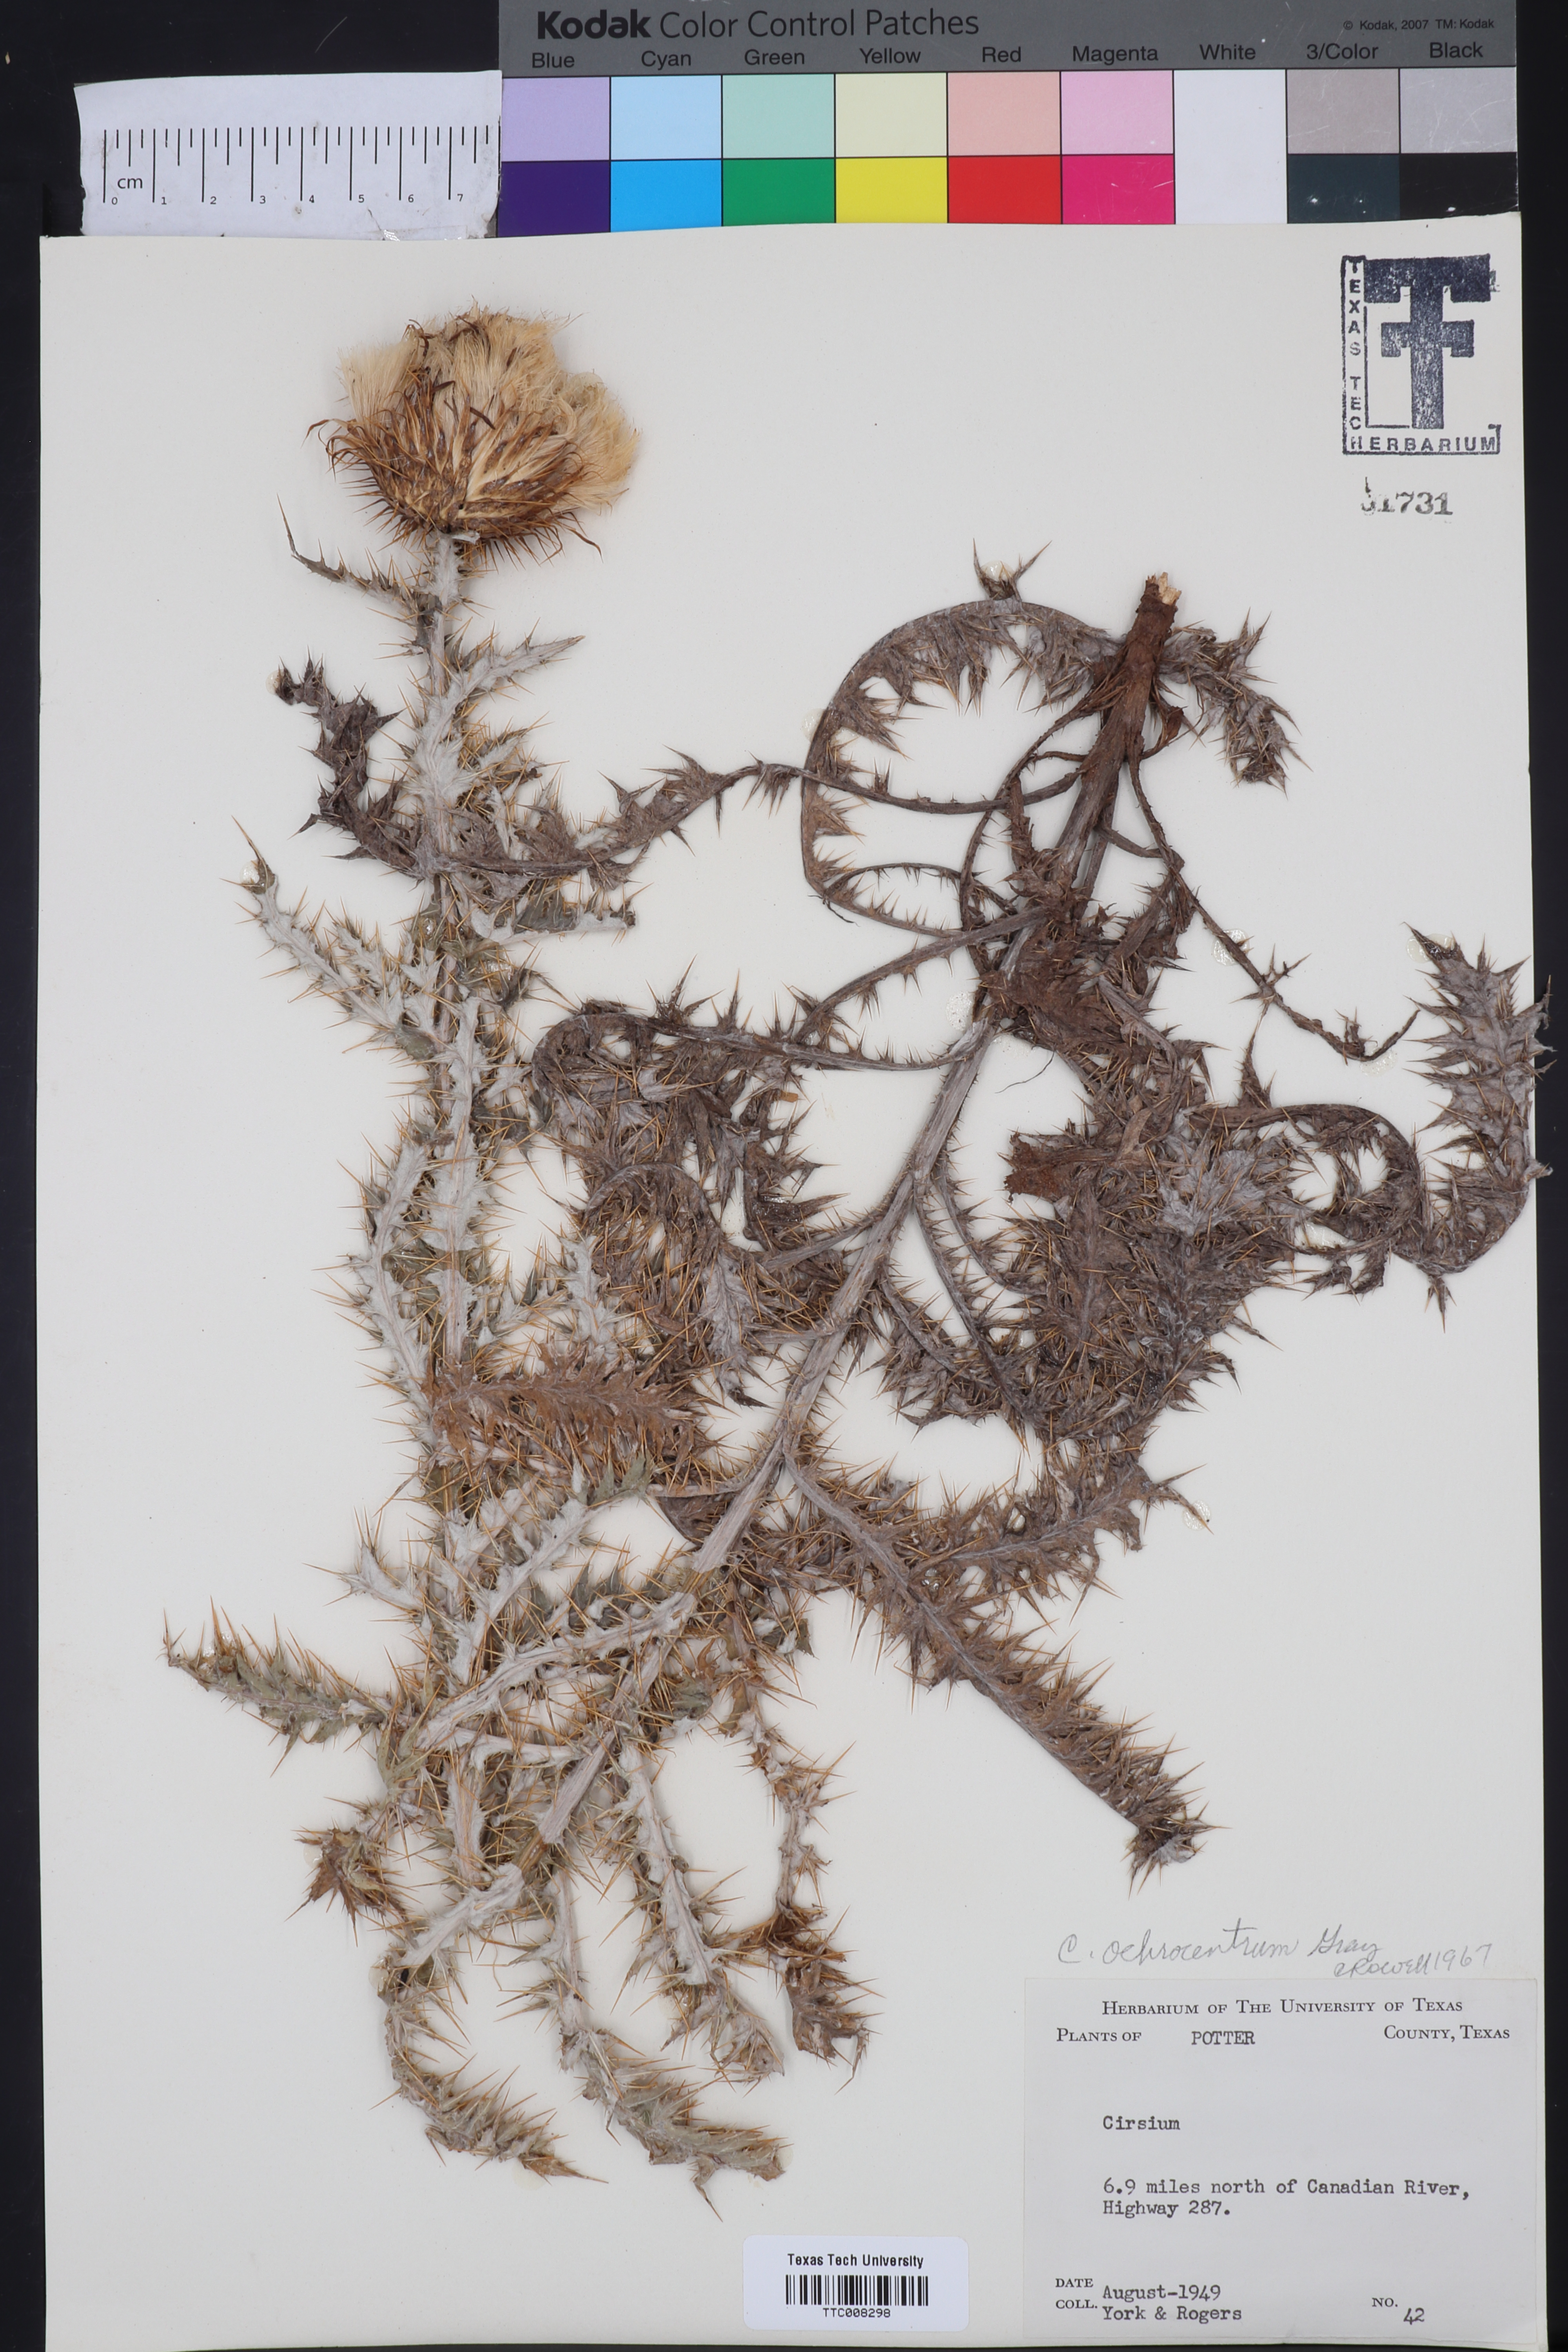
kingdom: Plantae
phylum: Tracheophyta
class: Magnoliopsida
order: Asterales
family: Asteraceae
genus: Cirsium
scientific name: Cirsium ochrocentrum
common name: Yellow-spine thistle
